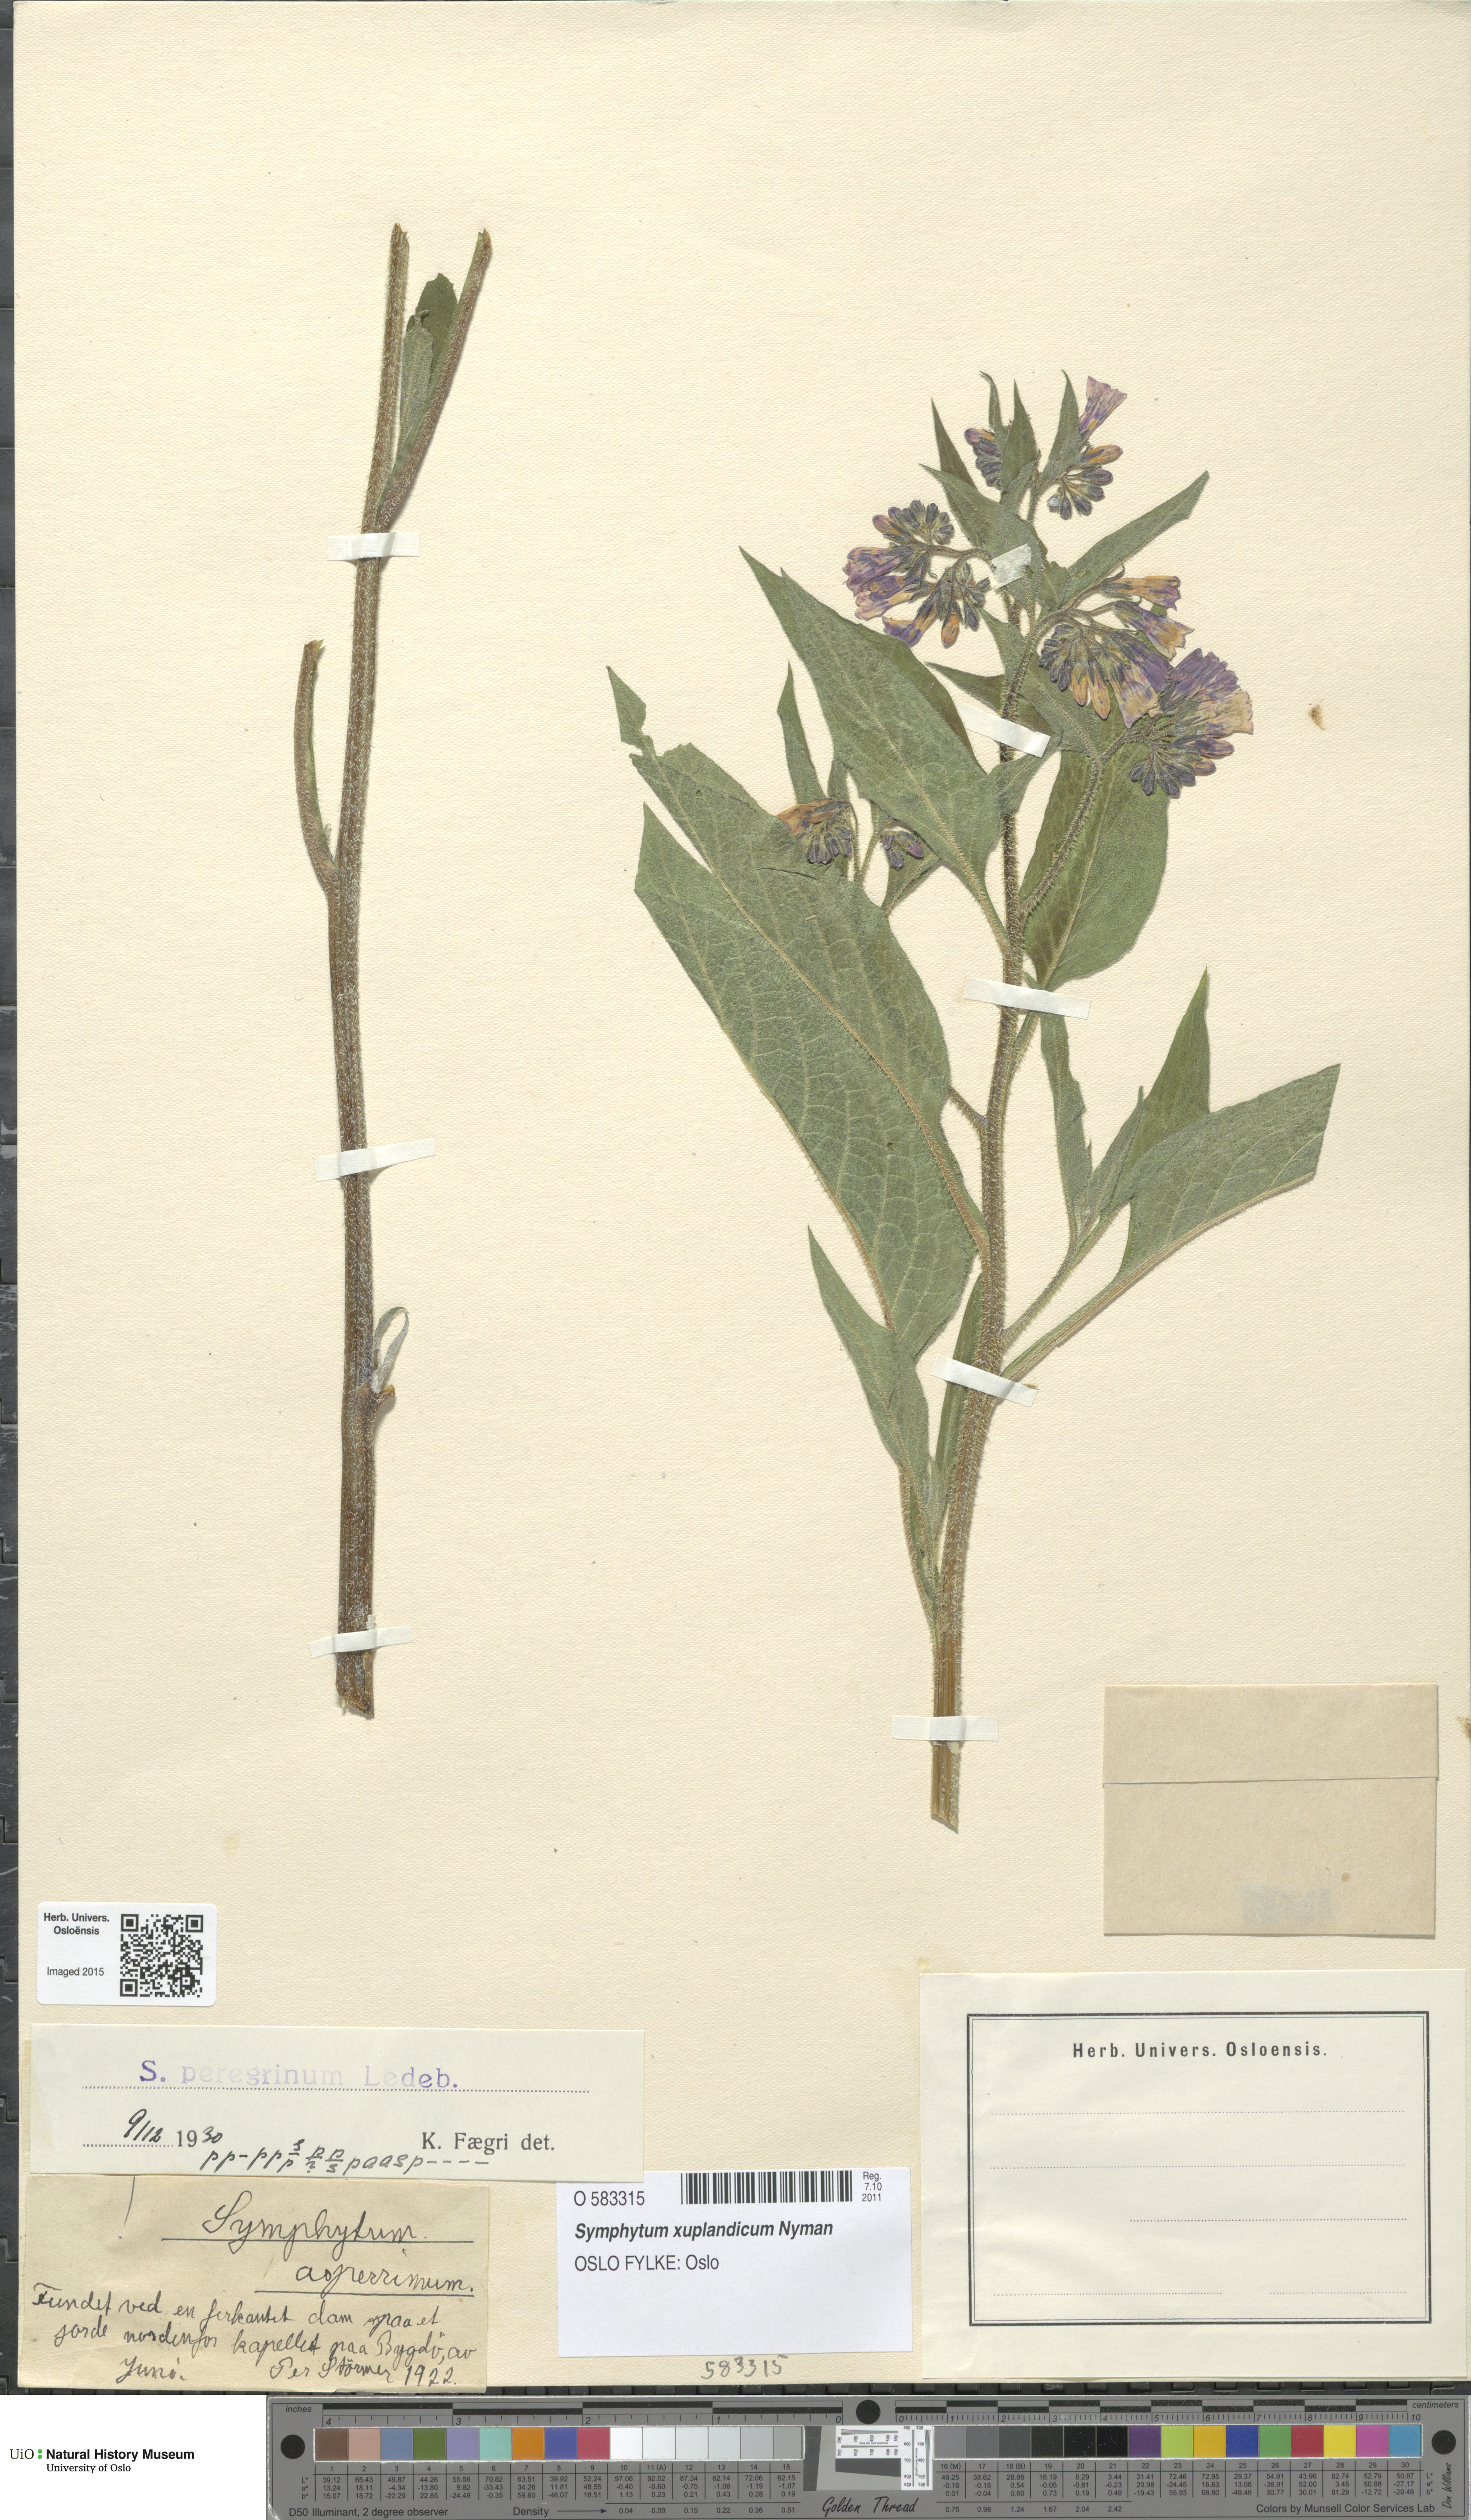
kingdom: Plantae
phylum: Tracheophyta
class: Magnoliopsida
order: Boraginales
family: Boraginaceae
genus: Symphytum
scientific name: Symphytum uplandicum
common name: Russian comfrey
